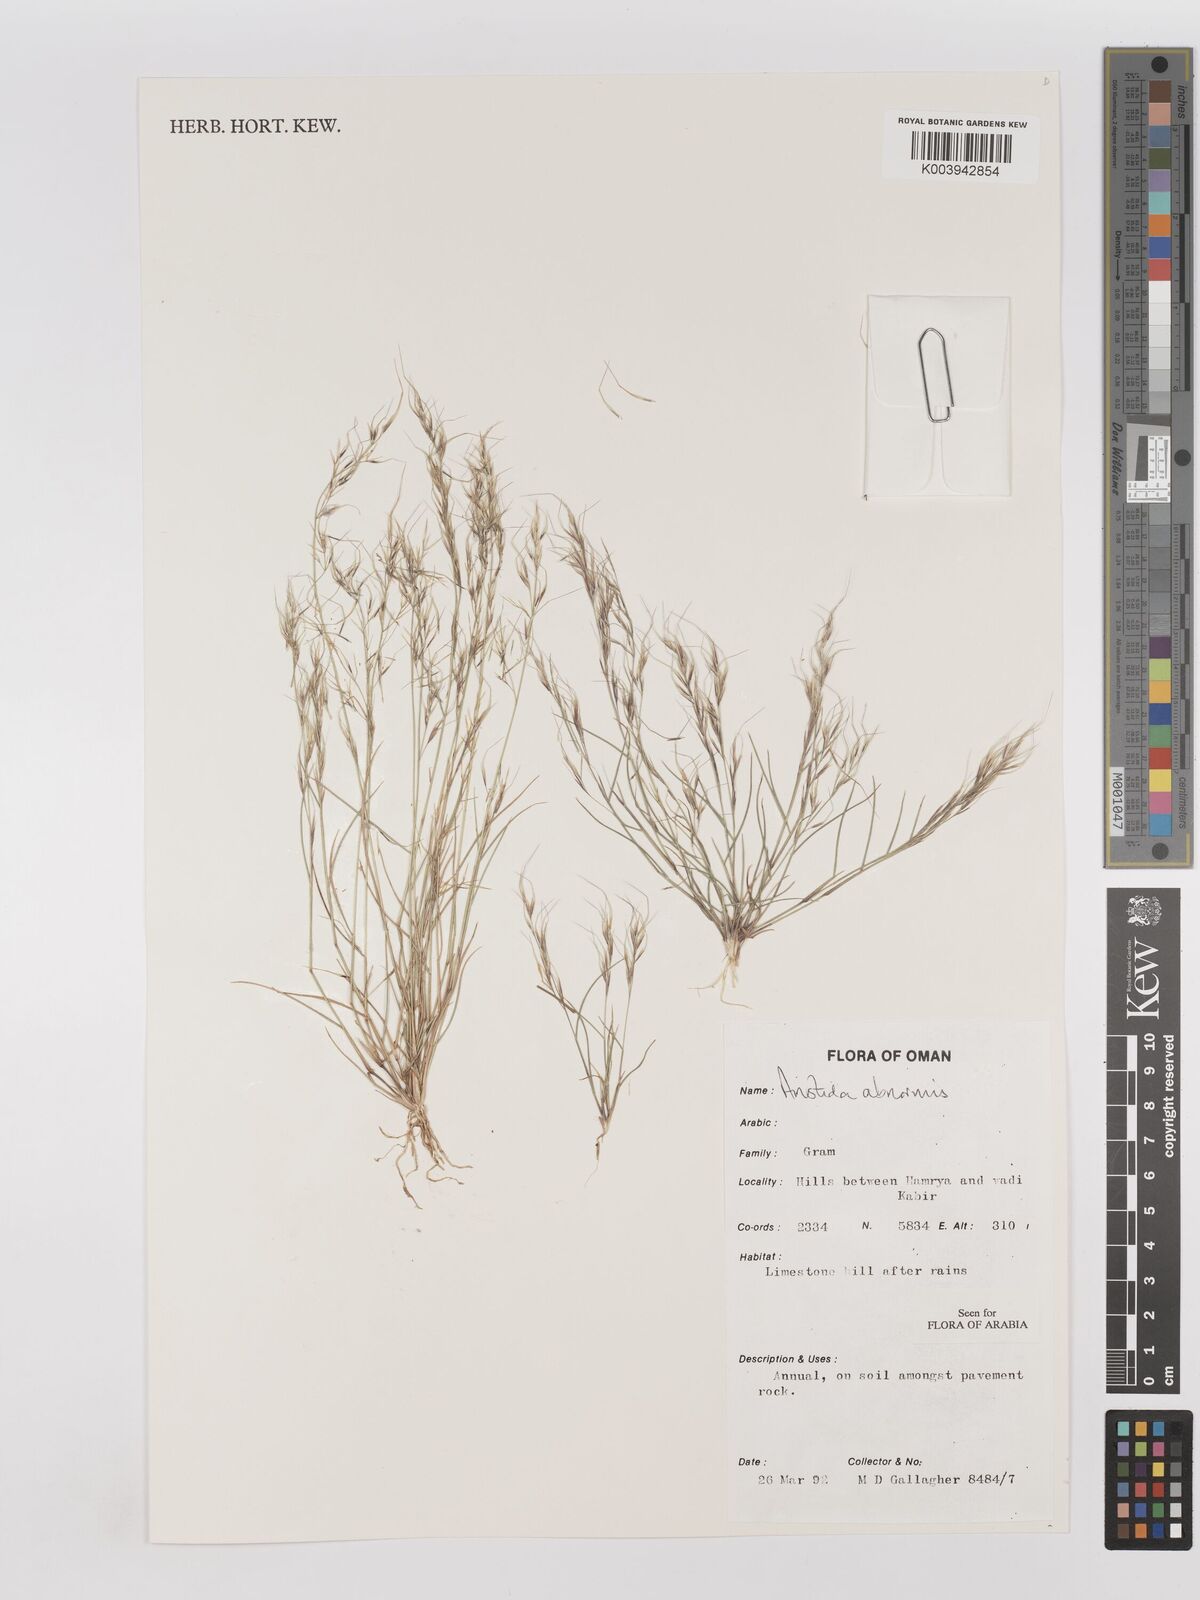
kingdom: Plantae
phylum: Tracheophyta
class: Liliopsida
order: Poales
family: Poaceae
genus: Aristida
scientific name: Aristida abnormis
